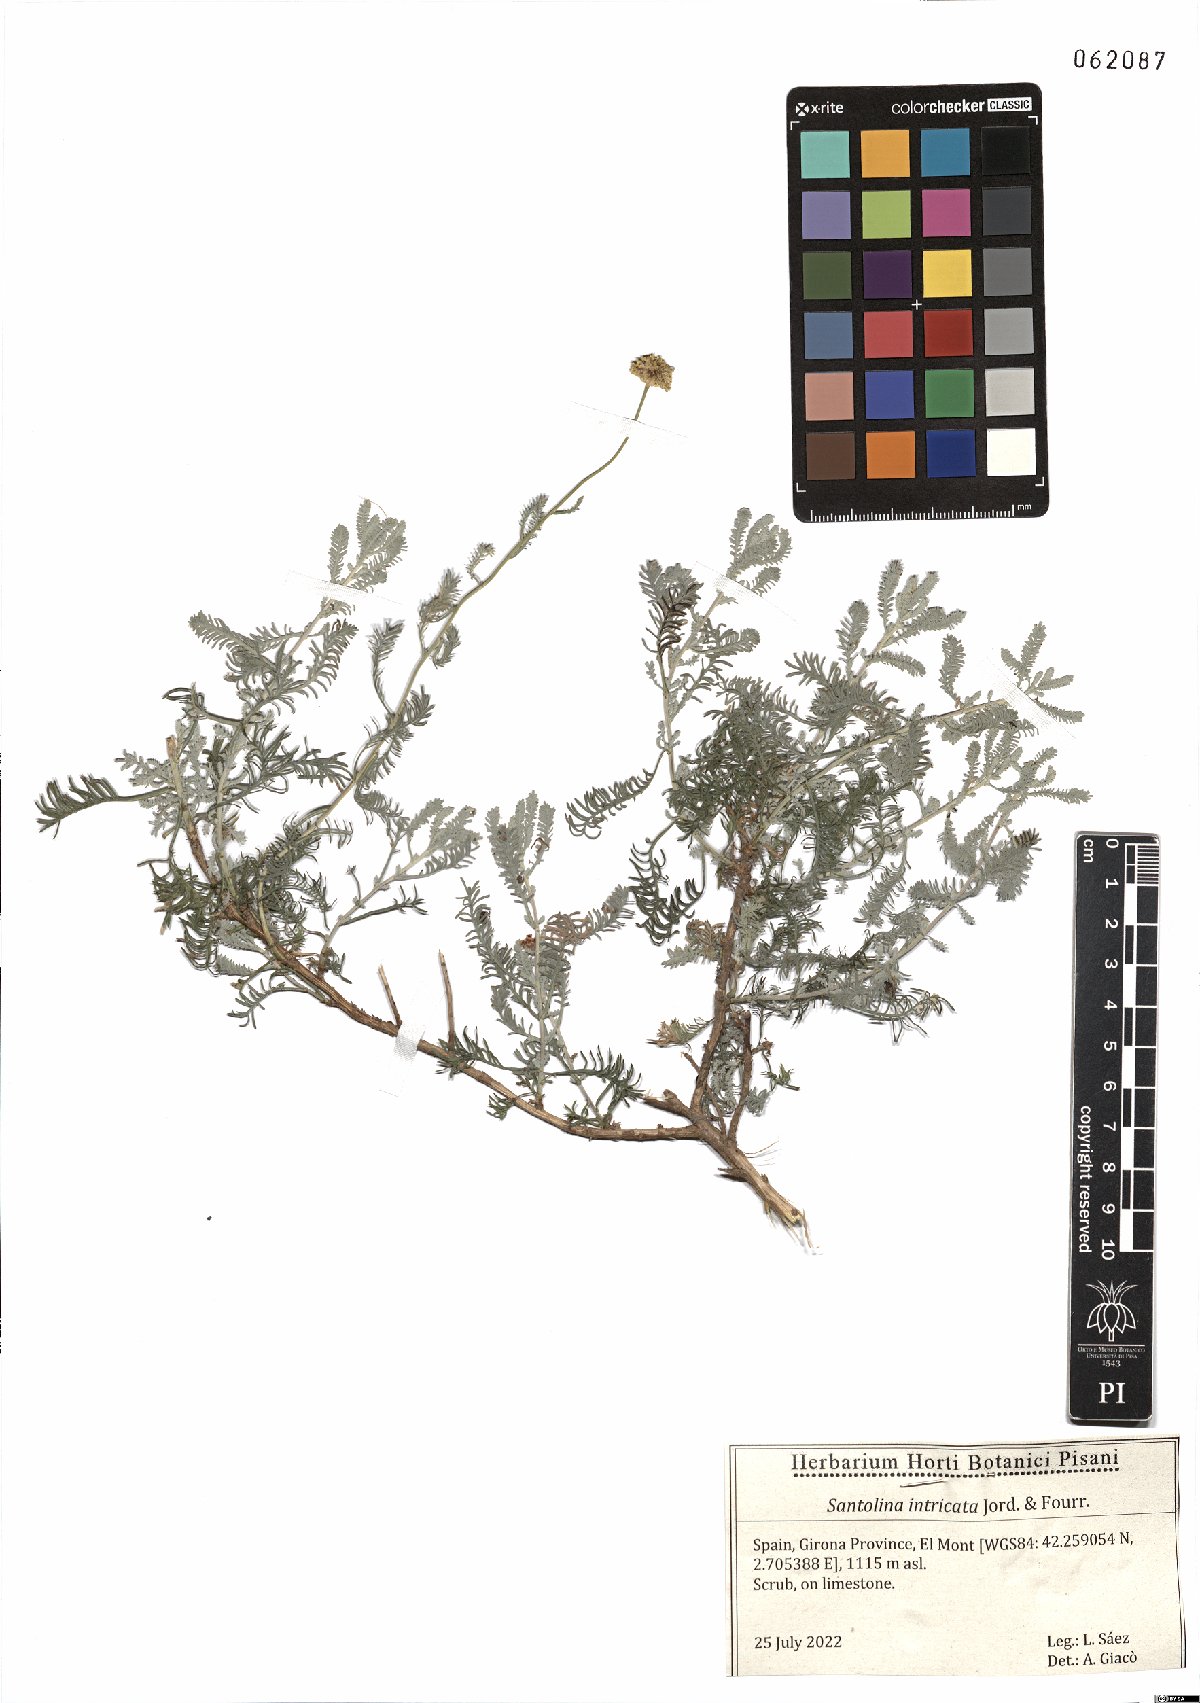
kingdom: Plantae
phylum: Tracheophyta
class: Magnoliopsida
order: Asterales
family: Asteraceae
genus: Santolina
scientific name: Santolina benthamiana
